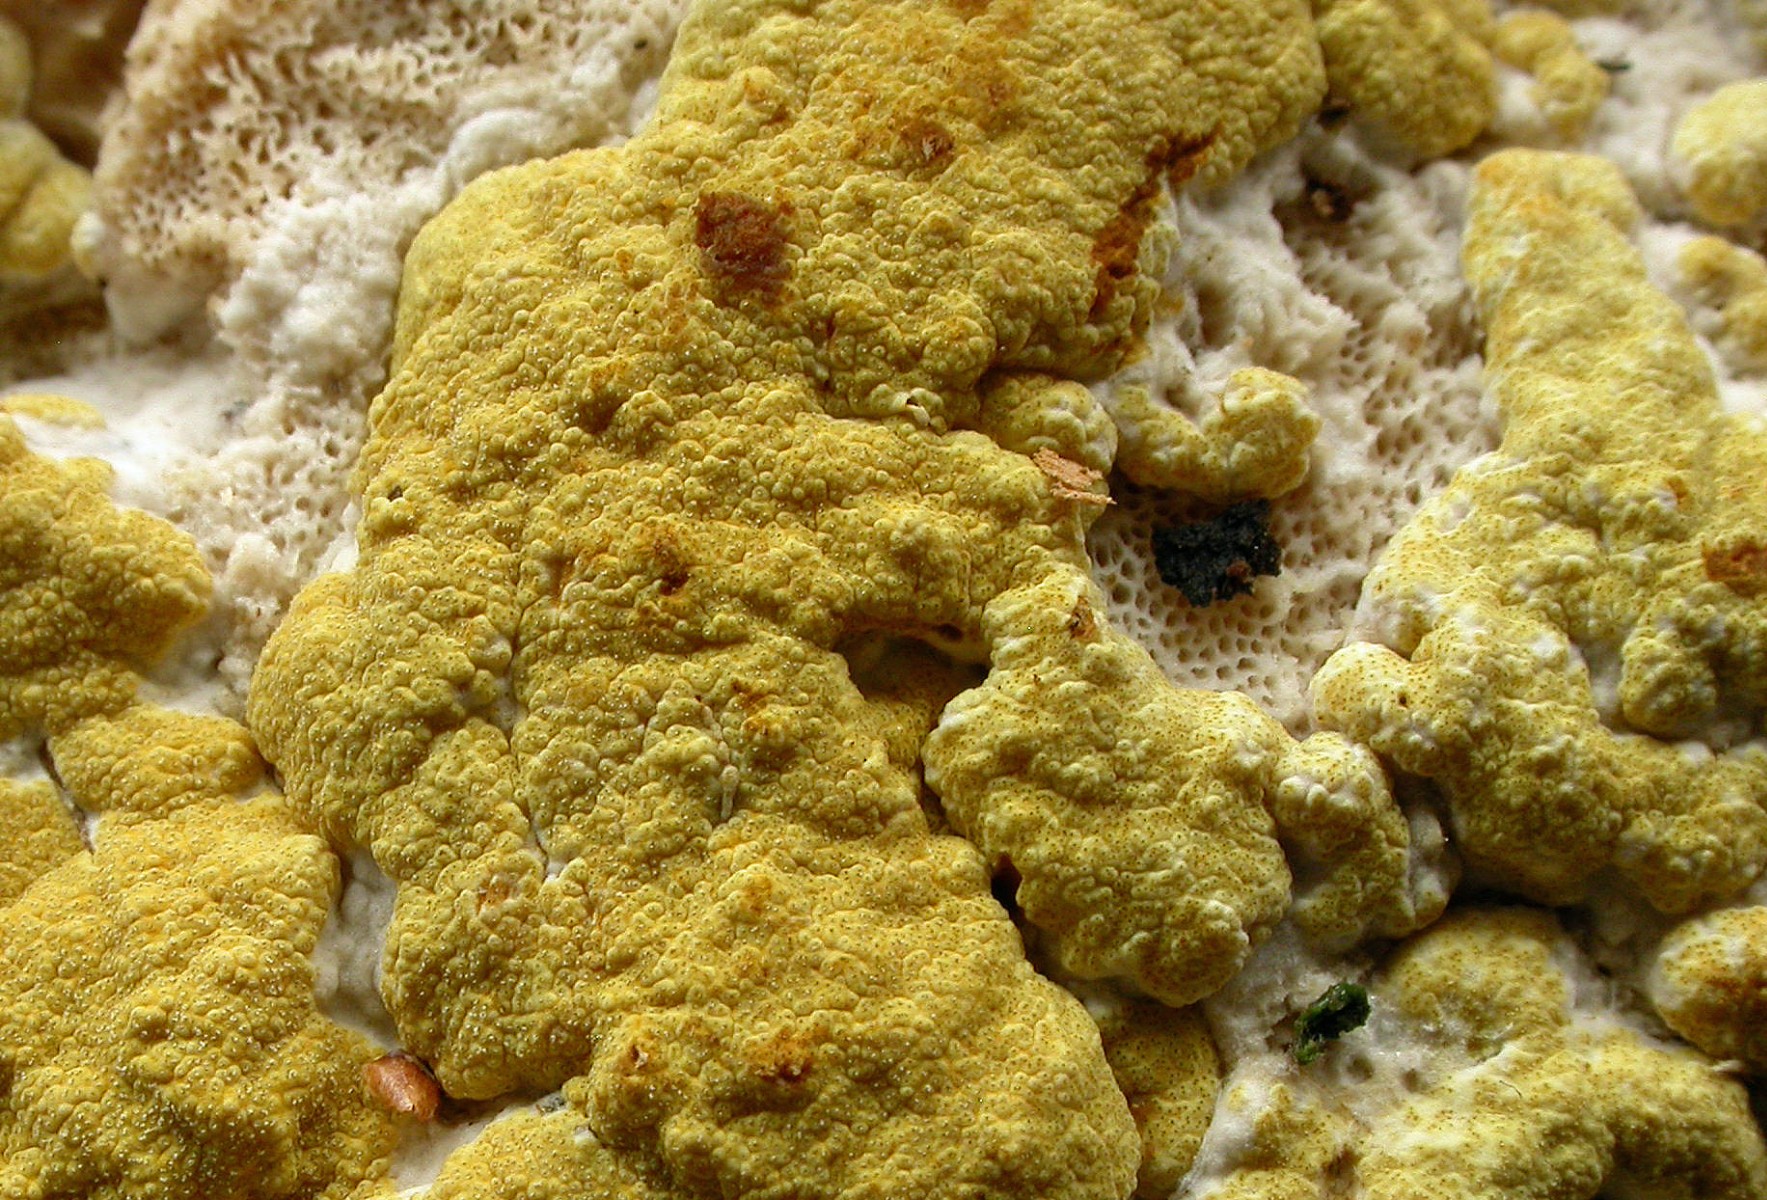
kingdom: Fungi
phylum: Ascomycota
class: Sordariomycetes
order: Hypocreales
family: Hypocreaceae
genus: Trichoderma
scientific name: Trichoderma pulvinatum
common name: snyltende kødkerne
